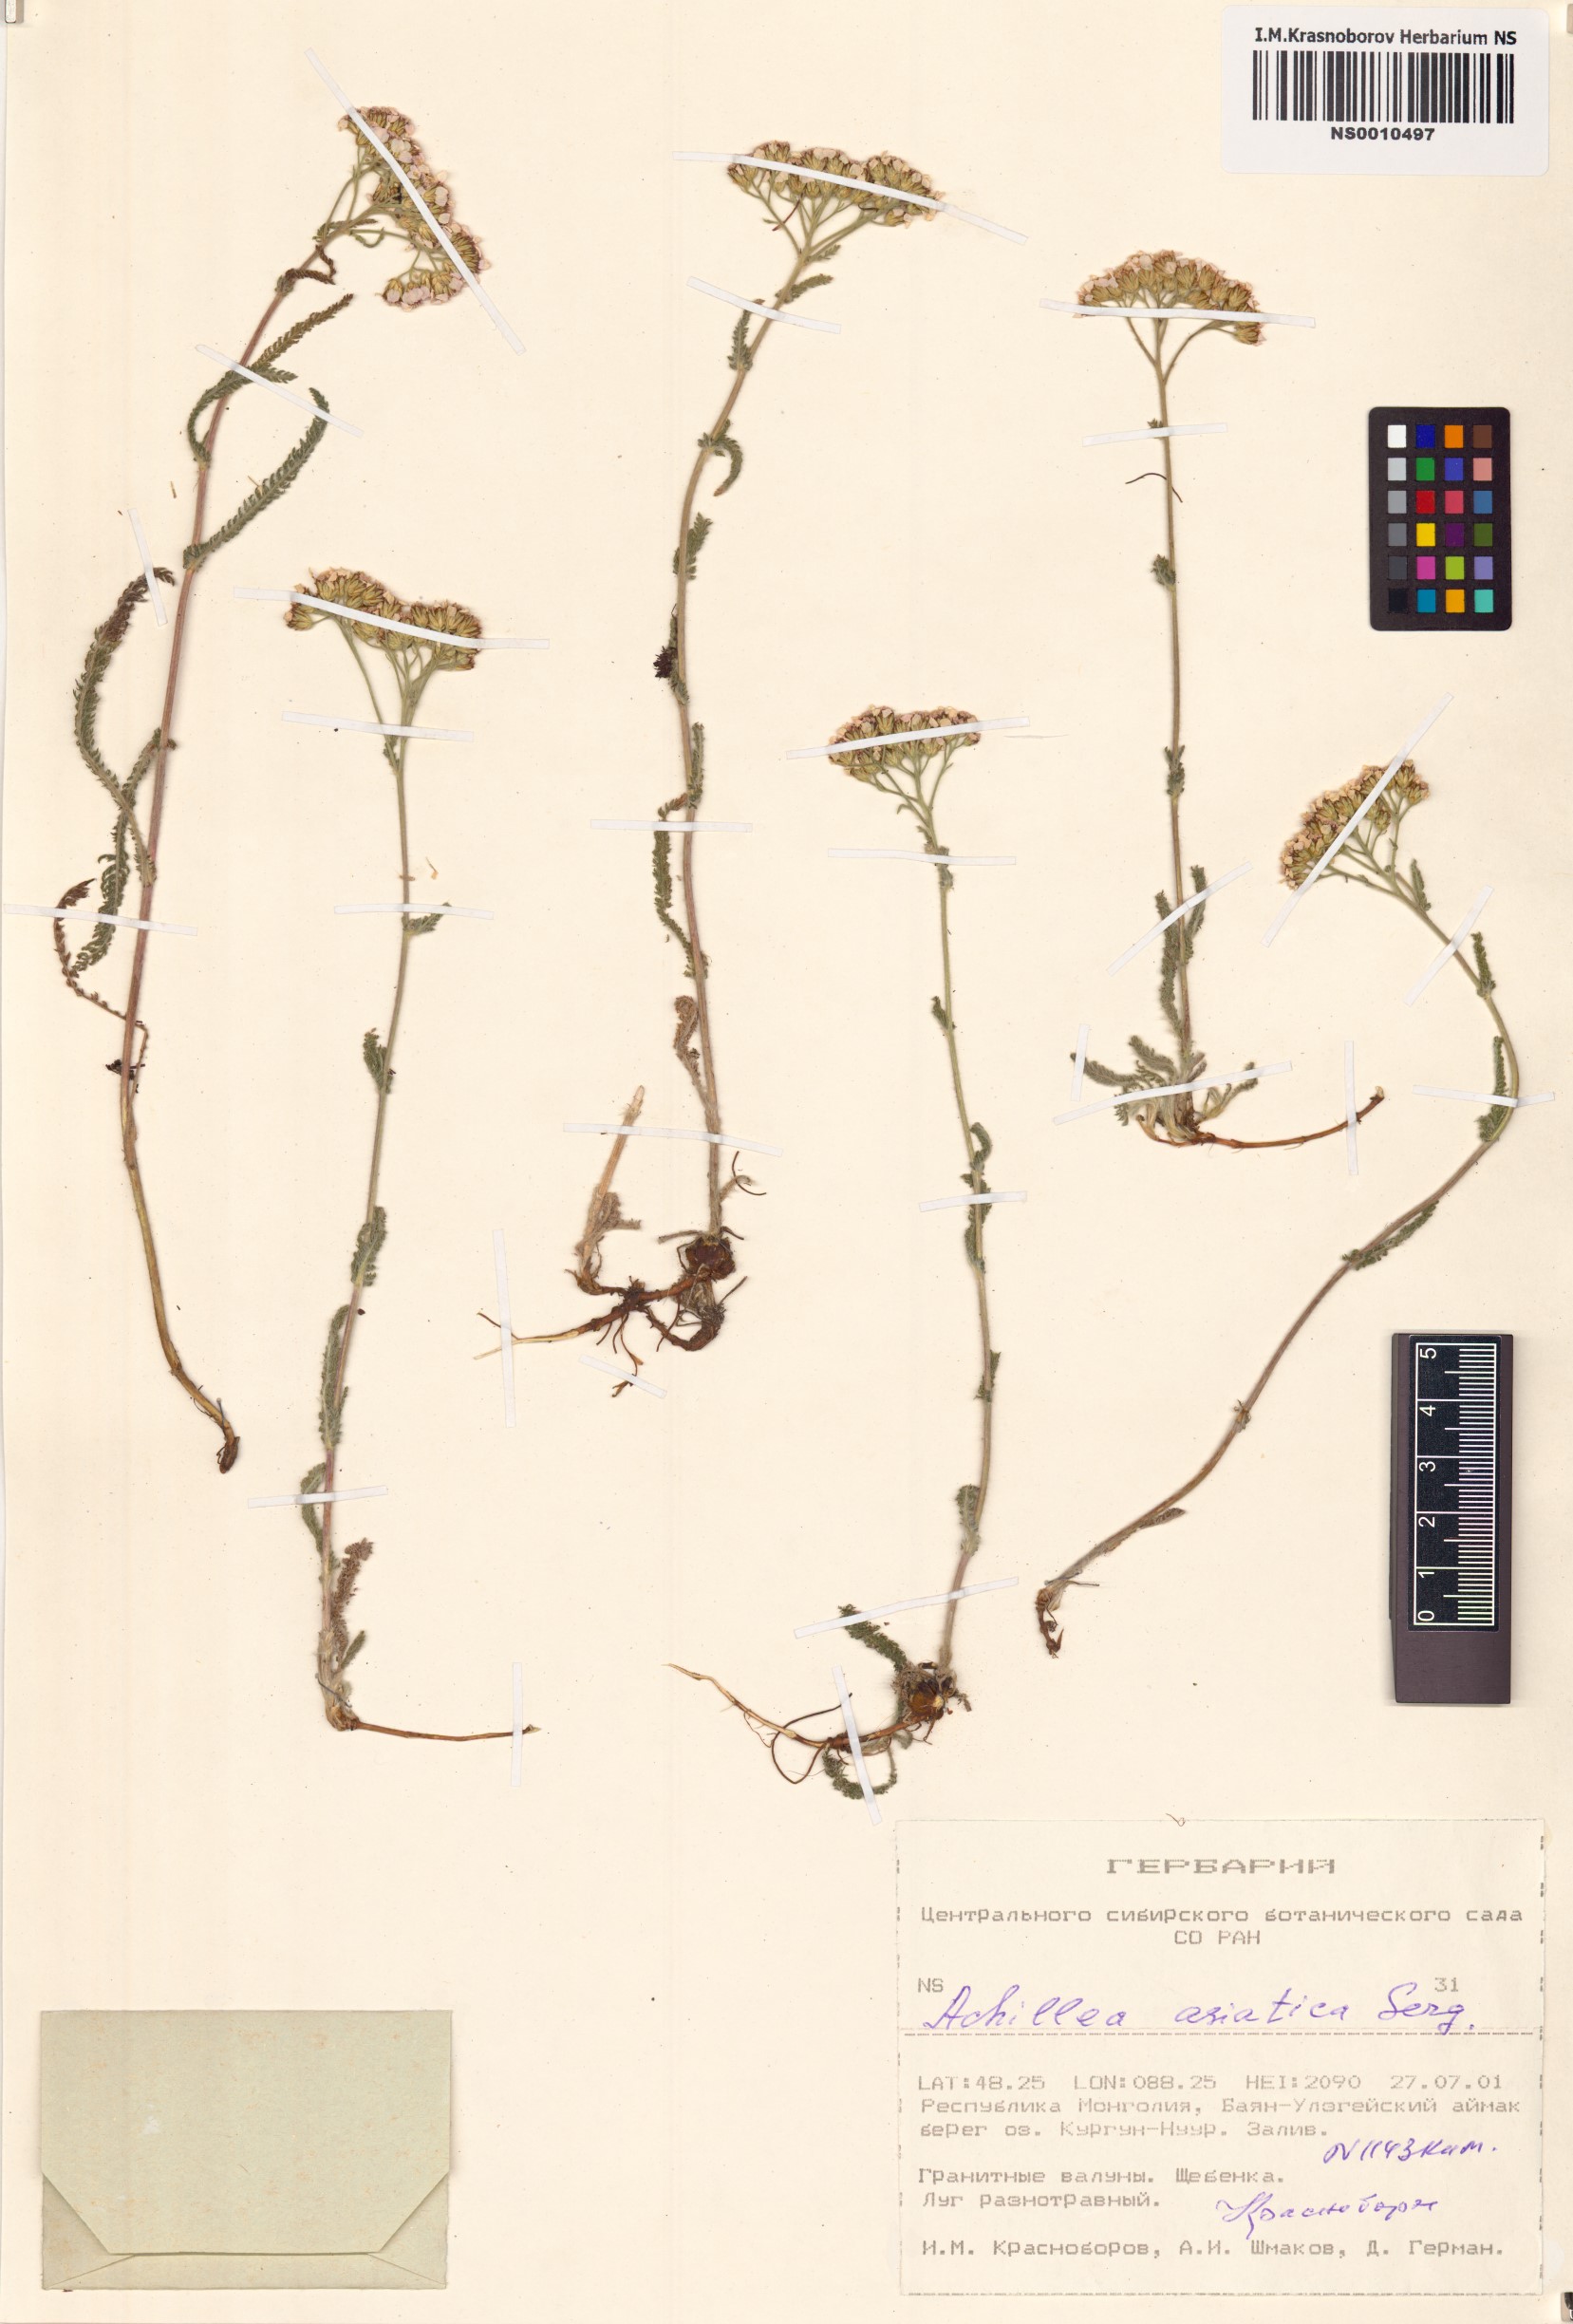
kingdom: Plantae
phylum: Tracheophyta
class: Magnoliopsida
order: Asterales
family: Asteraceae
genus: Achillea
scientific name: Achillea asiatica
